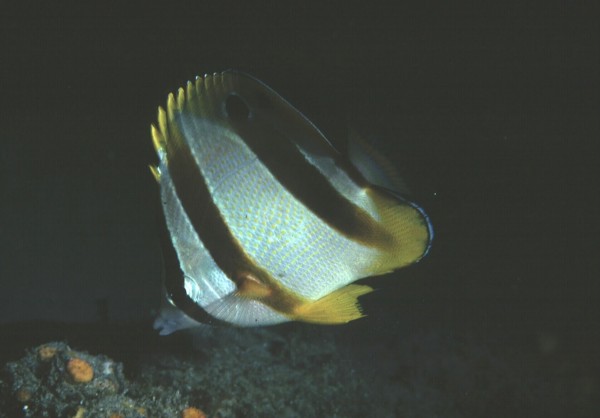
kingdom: Animalia
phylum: Chordata
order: Perciformes
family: Chaetodontidae
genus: Chaetodon
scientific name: Chaetodon marleyi
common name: Doubledash butterflyfish
